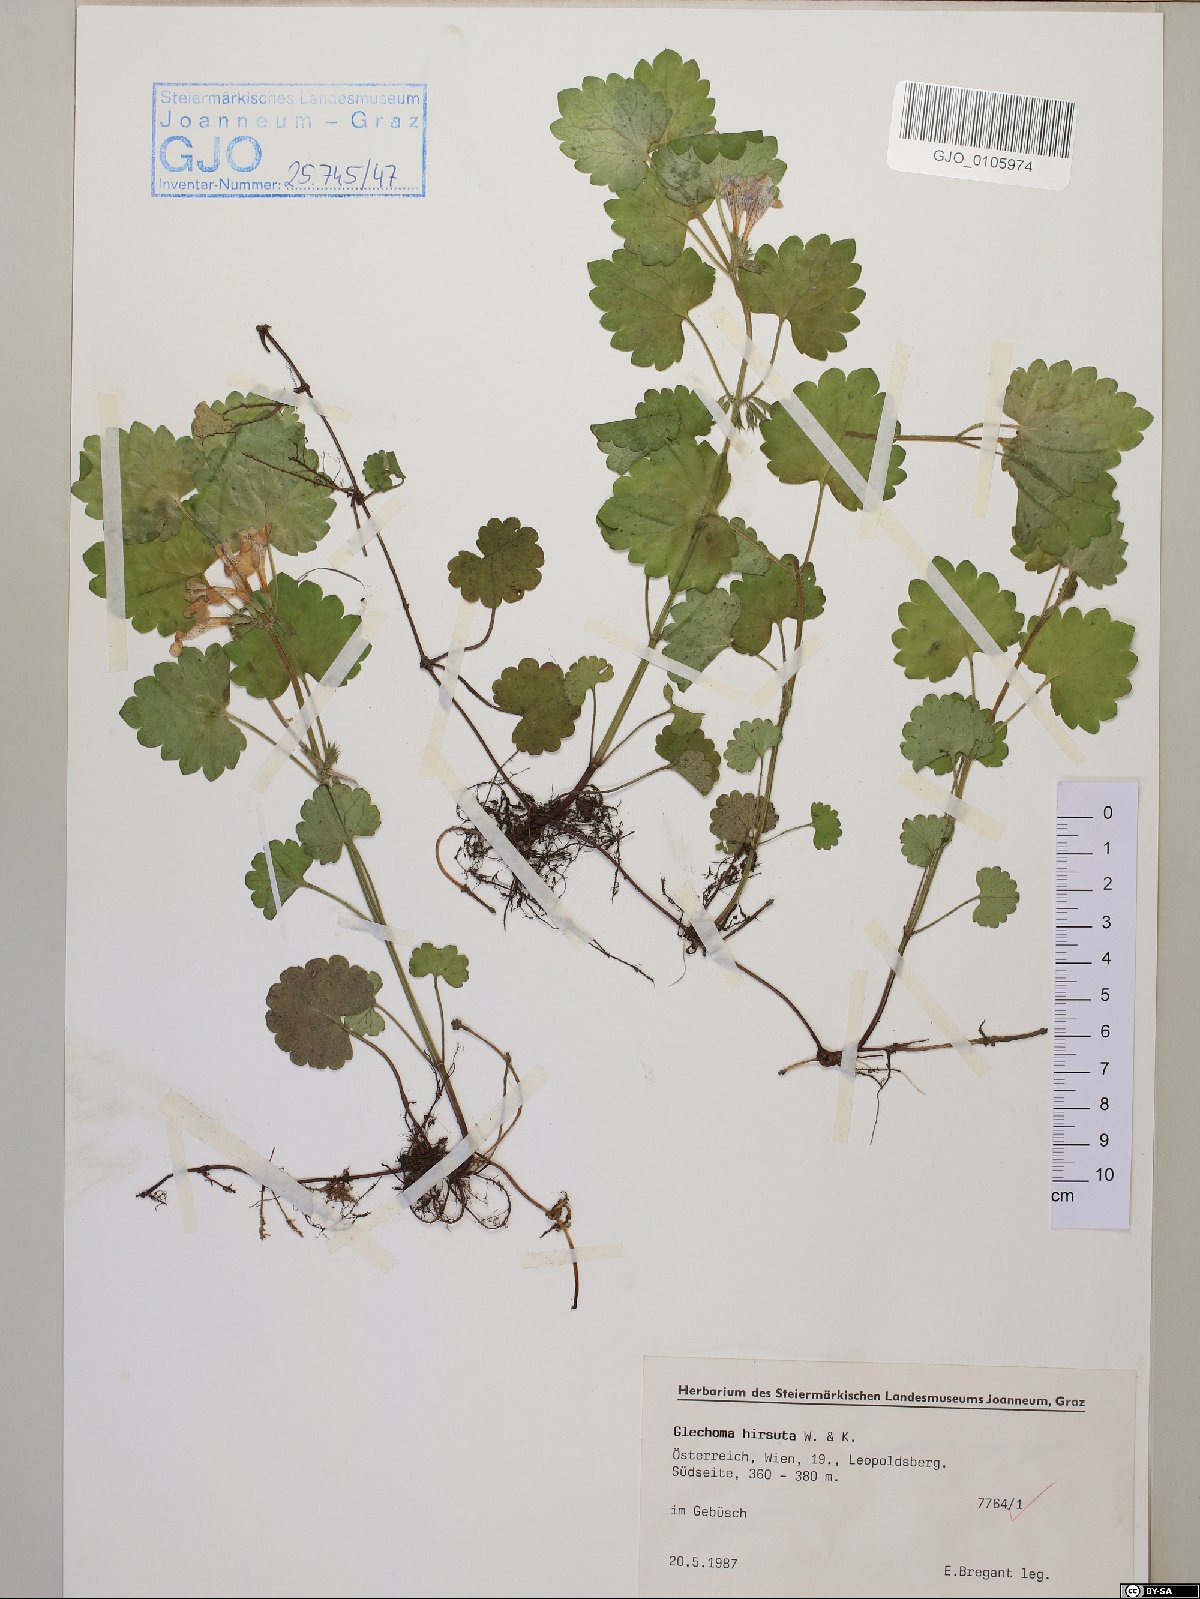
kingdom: Plantae
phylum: Tracheophyta
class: Magnoliopsida
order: Lamiales
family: Lamiaceae
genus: Glechoma
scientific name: Glechoma hirsuta
